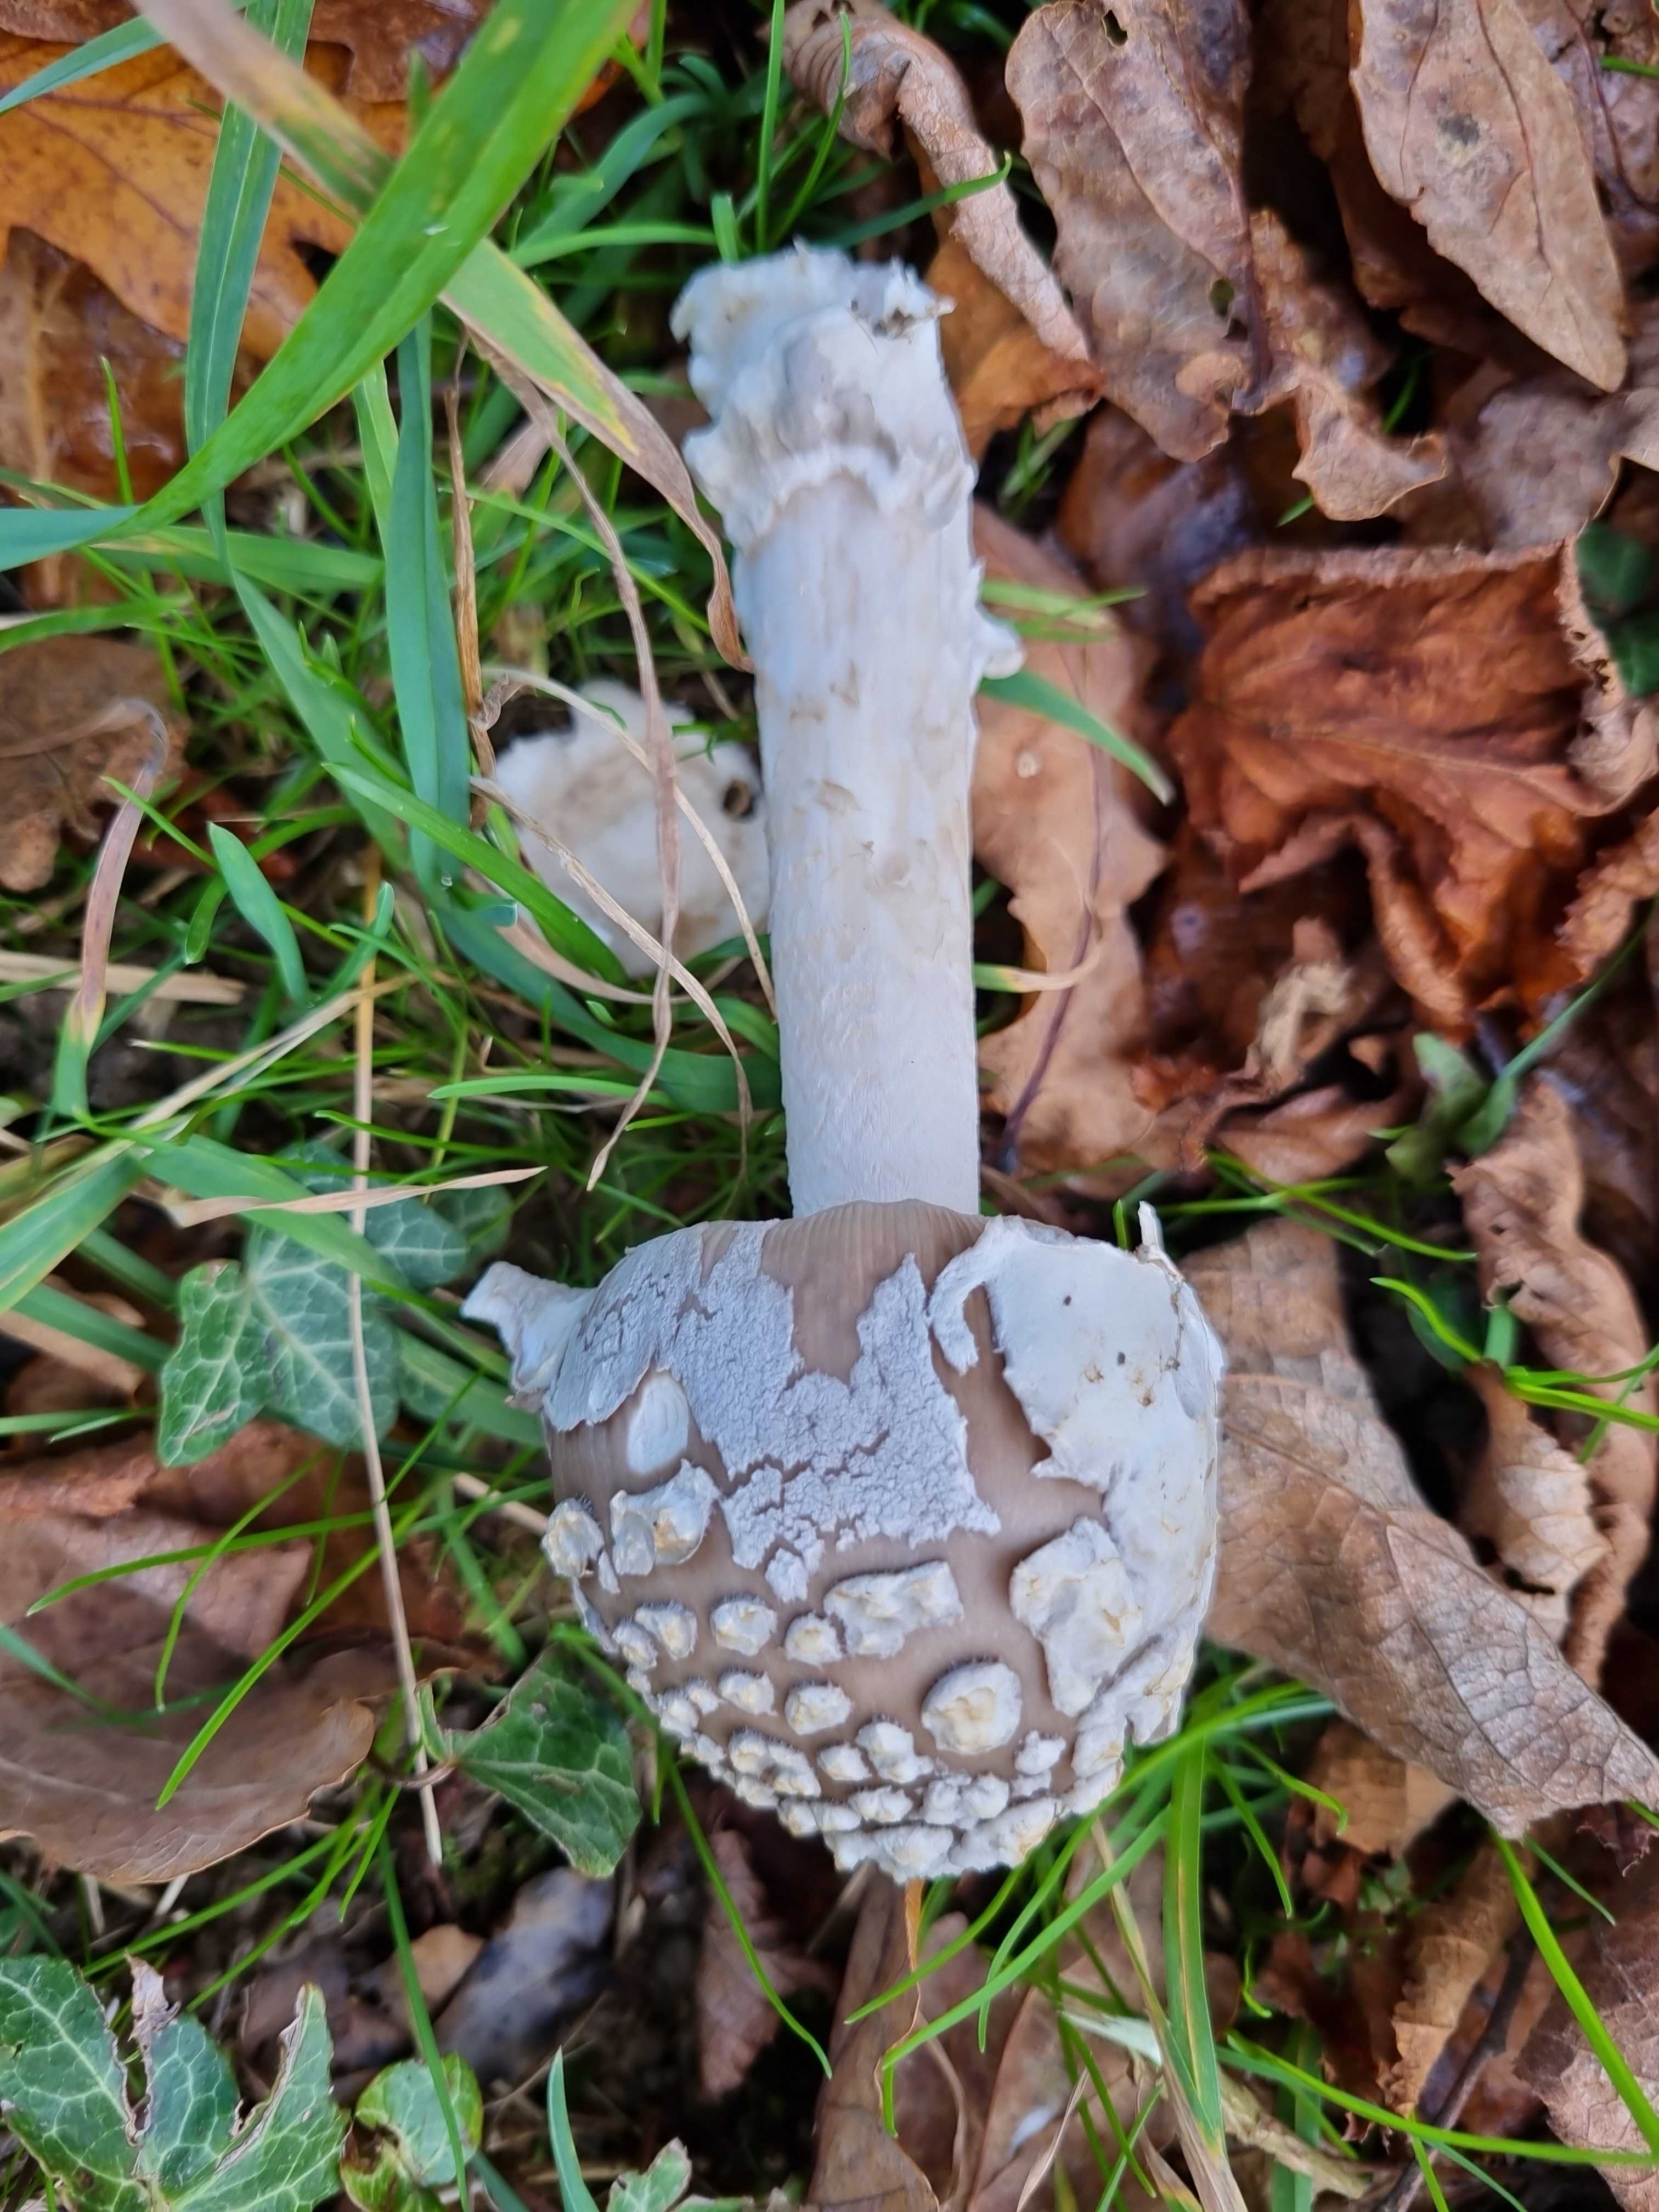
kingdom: Fungi
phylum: Basidiomycota
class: Agaricomycetes
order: Agaricales
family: Amanitaceae
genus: Amanita
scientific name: Amanita ceciliae
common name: stor kam-fluesvamp
